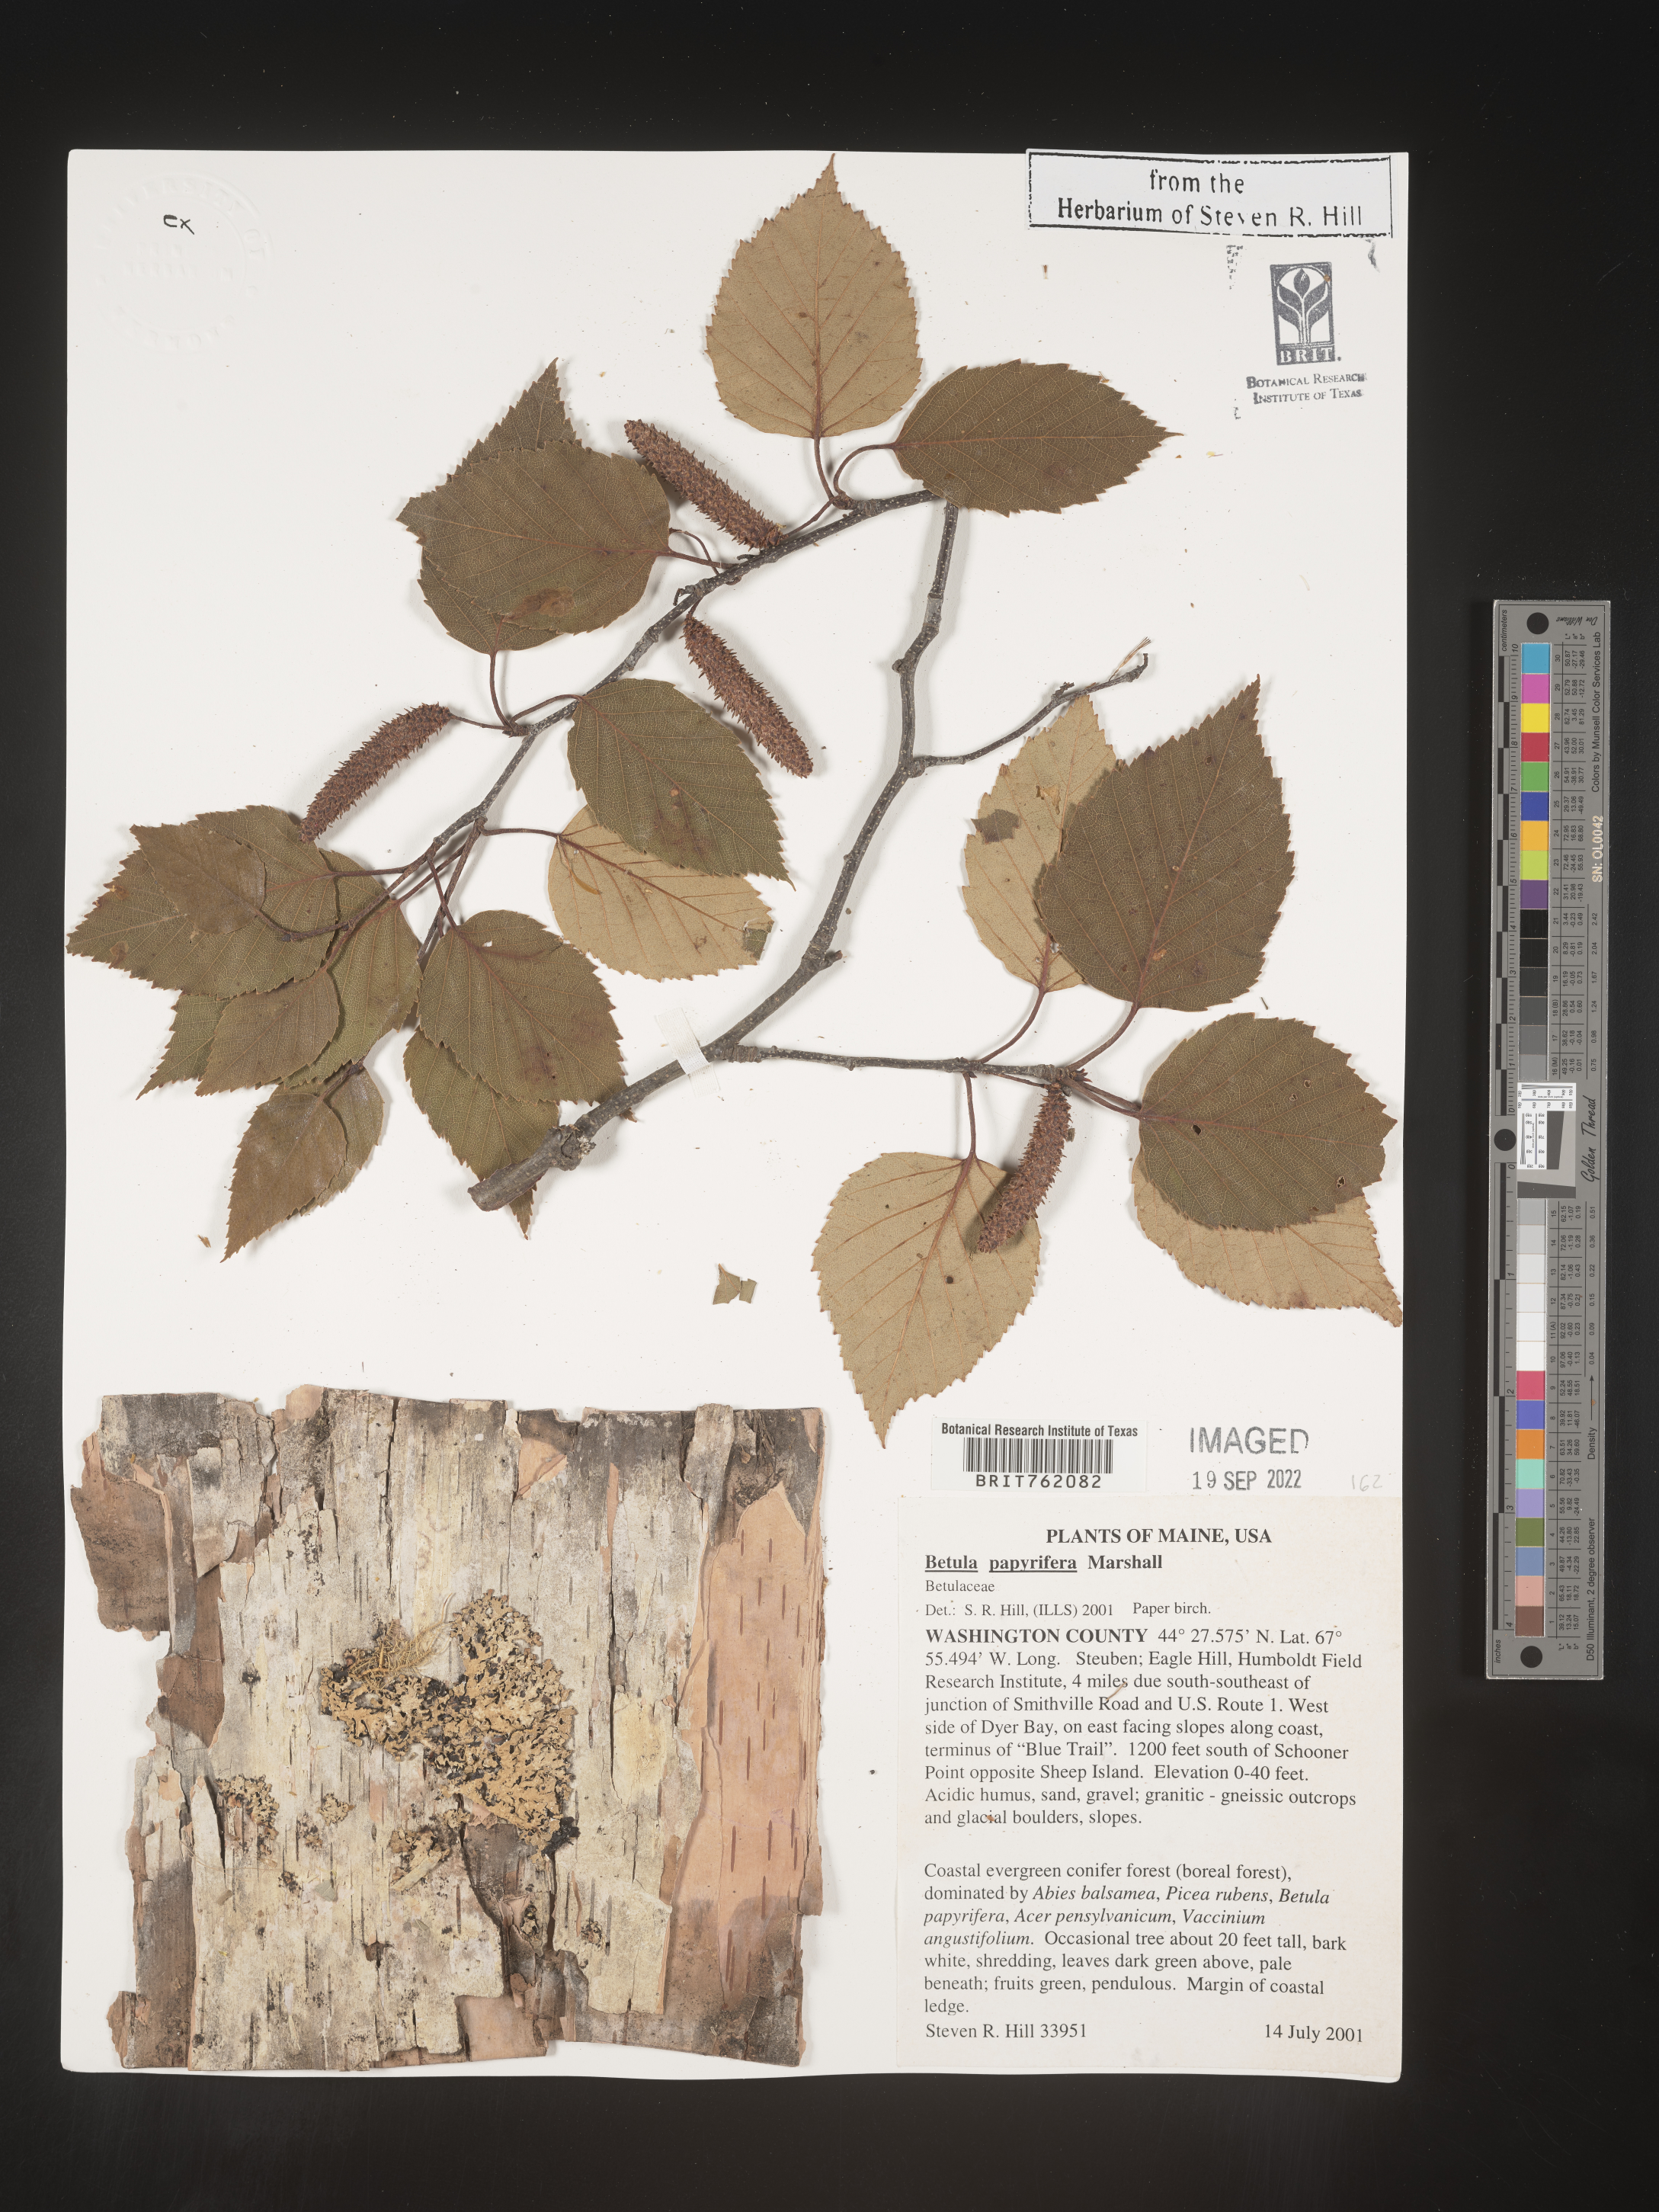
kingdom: Plantae
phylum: Tracheophyta
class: Magnoliopsida
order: Fagales
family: Betulaceae
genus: Betula
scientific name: Betula papyrifera
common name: Paper birch
